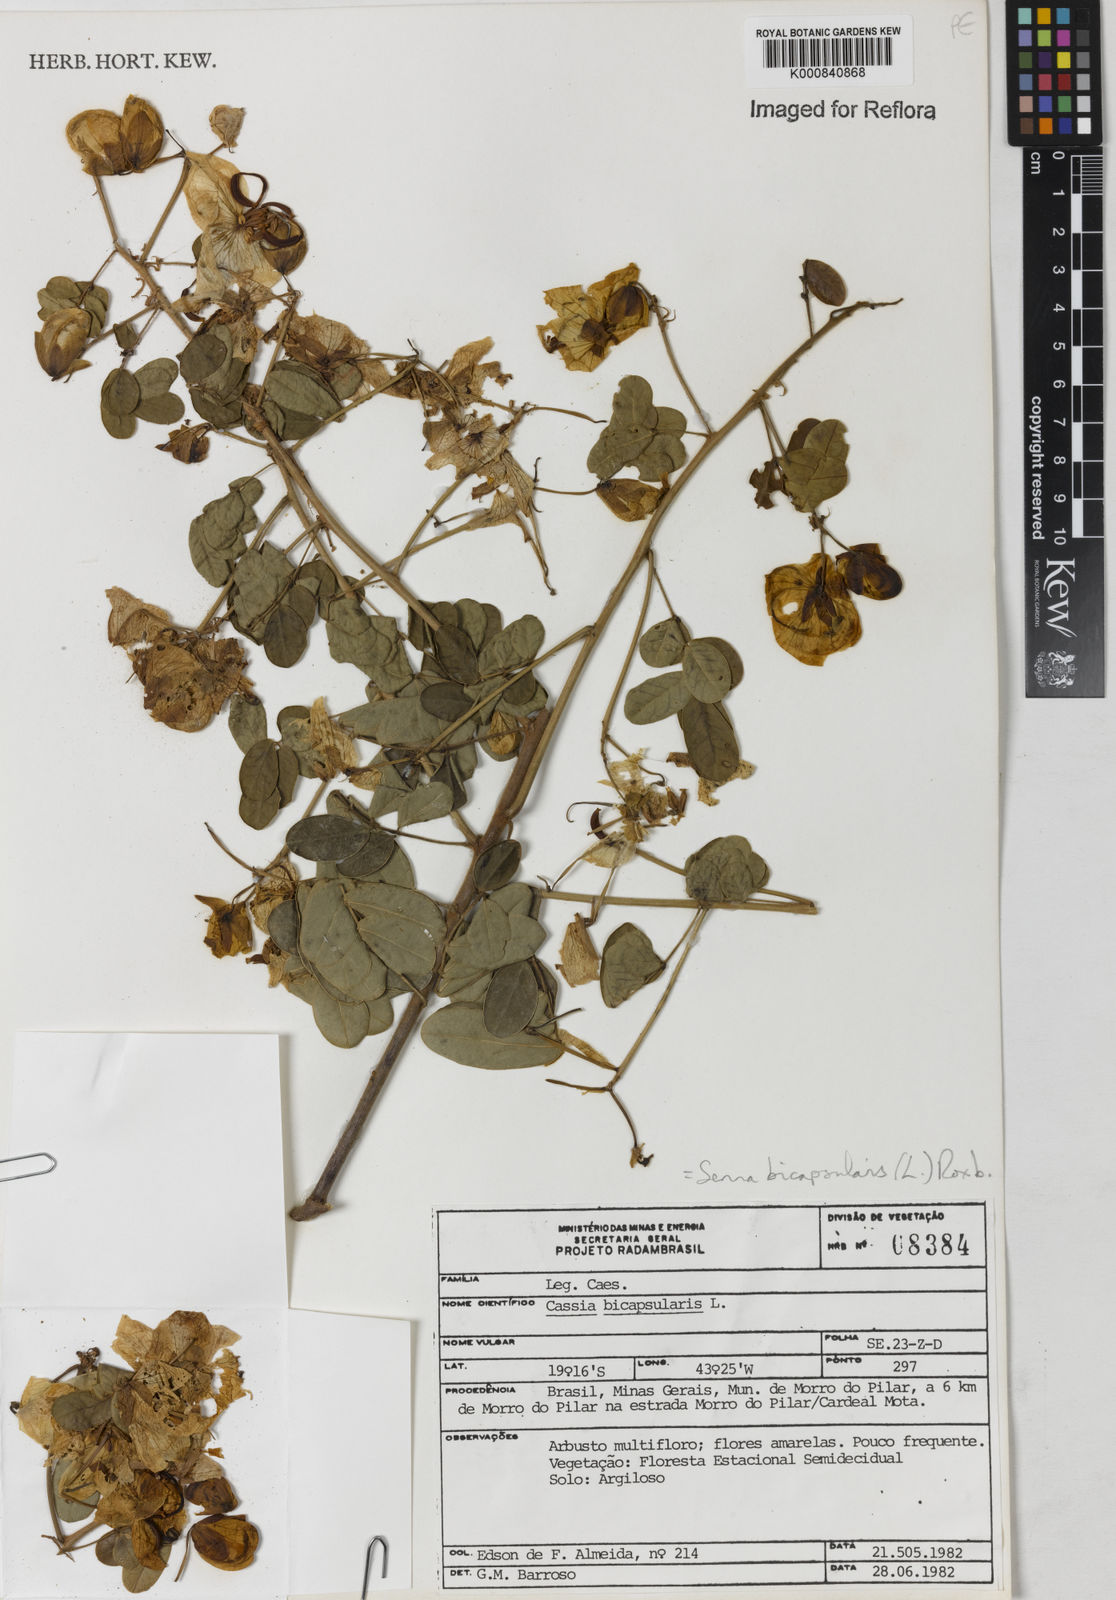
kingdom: Plantae
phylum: Tracheophyta
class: Magnoliopsida
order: Fabales
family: Fabaceae
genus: Senna
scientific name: Senna bicapsularis
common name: Christmasbush
